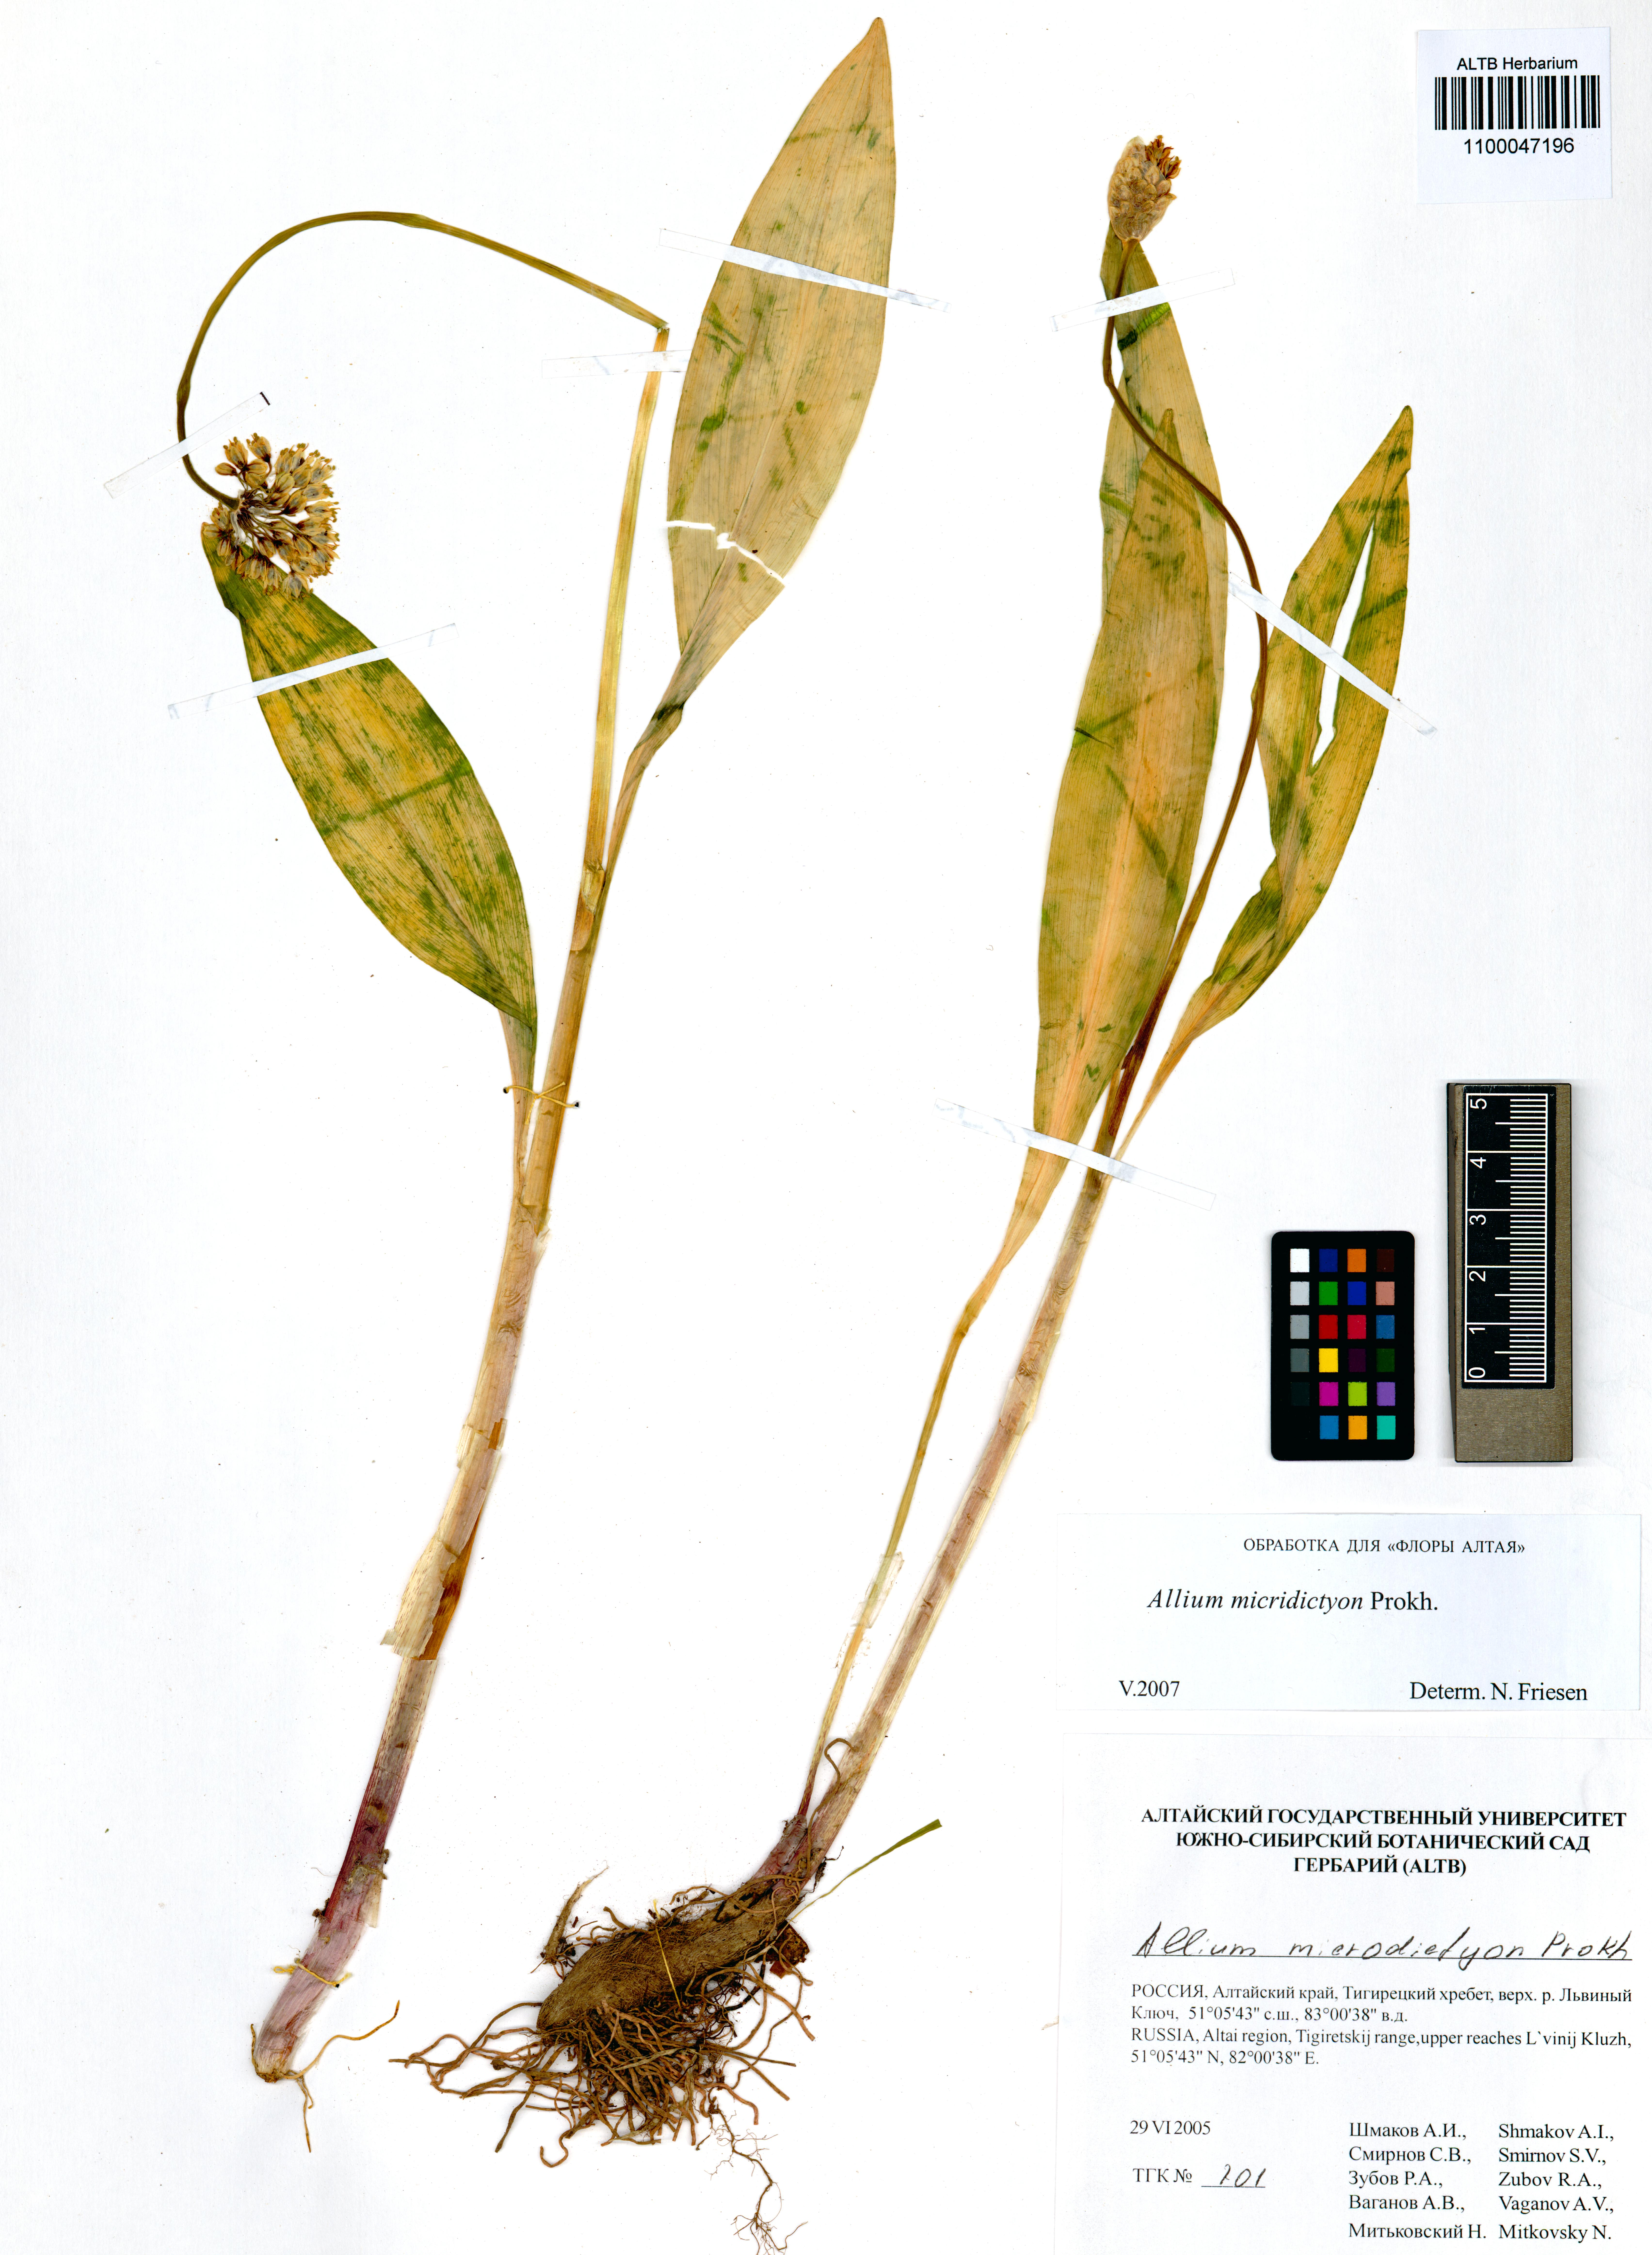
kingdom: Plantae
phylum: Tracheophyta
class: Liliopsida
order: Asparagales
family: Amaryllidaceae
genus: Allium
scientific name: Allium microdictyon
